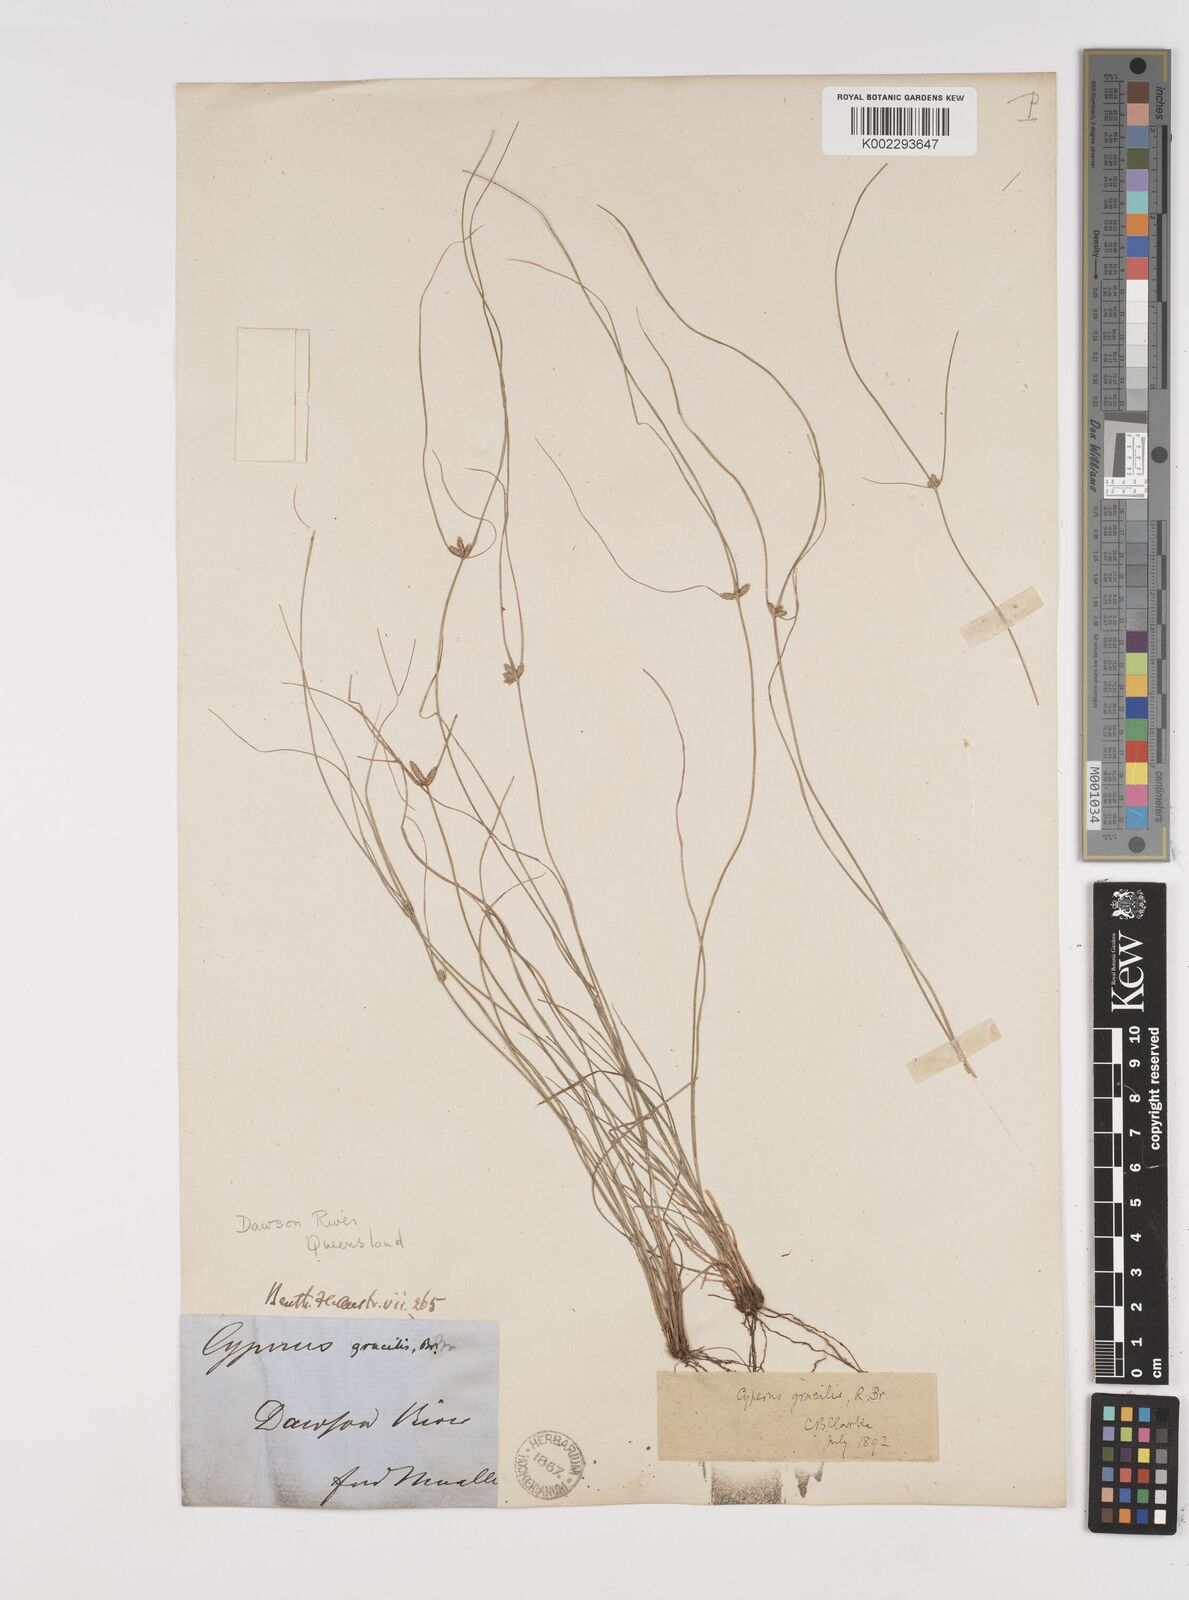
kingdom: Plantae
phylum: Tracheophyta
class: Liliopsida
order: Poales
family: Cyperaceae
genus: Cyperus
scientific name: Cyperus gracilis
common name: Slimjim flatsedge
